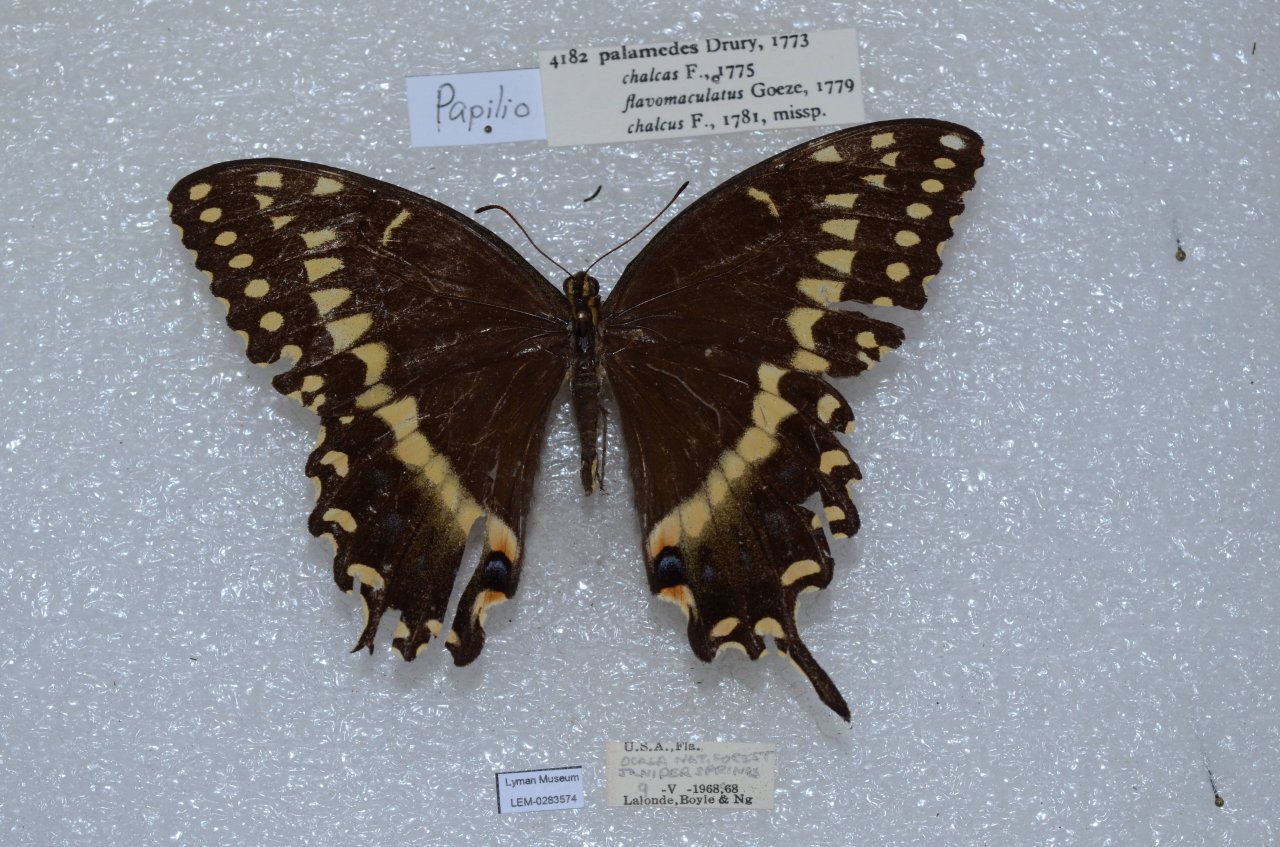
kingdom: Animalia
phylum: Arthropoda
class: Insecta
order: Lepidoptera
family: Papilionidae
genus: Pterourus
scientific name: Pterourus palamedes
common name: Palamedes Swallowtail
